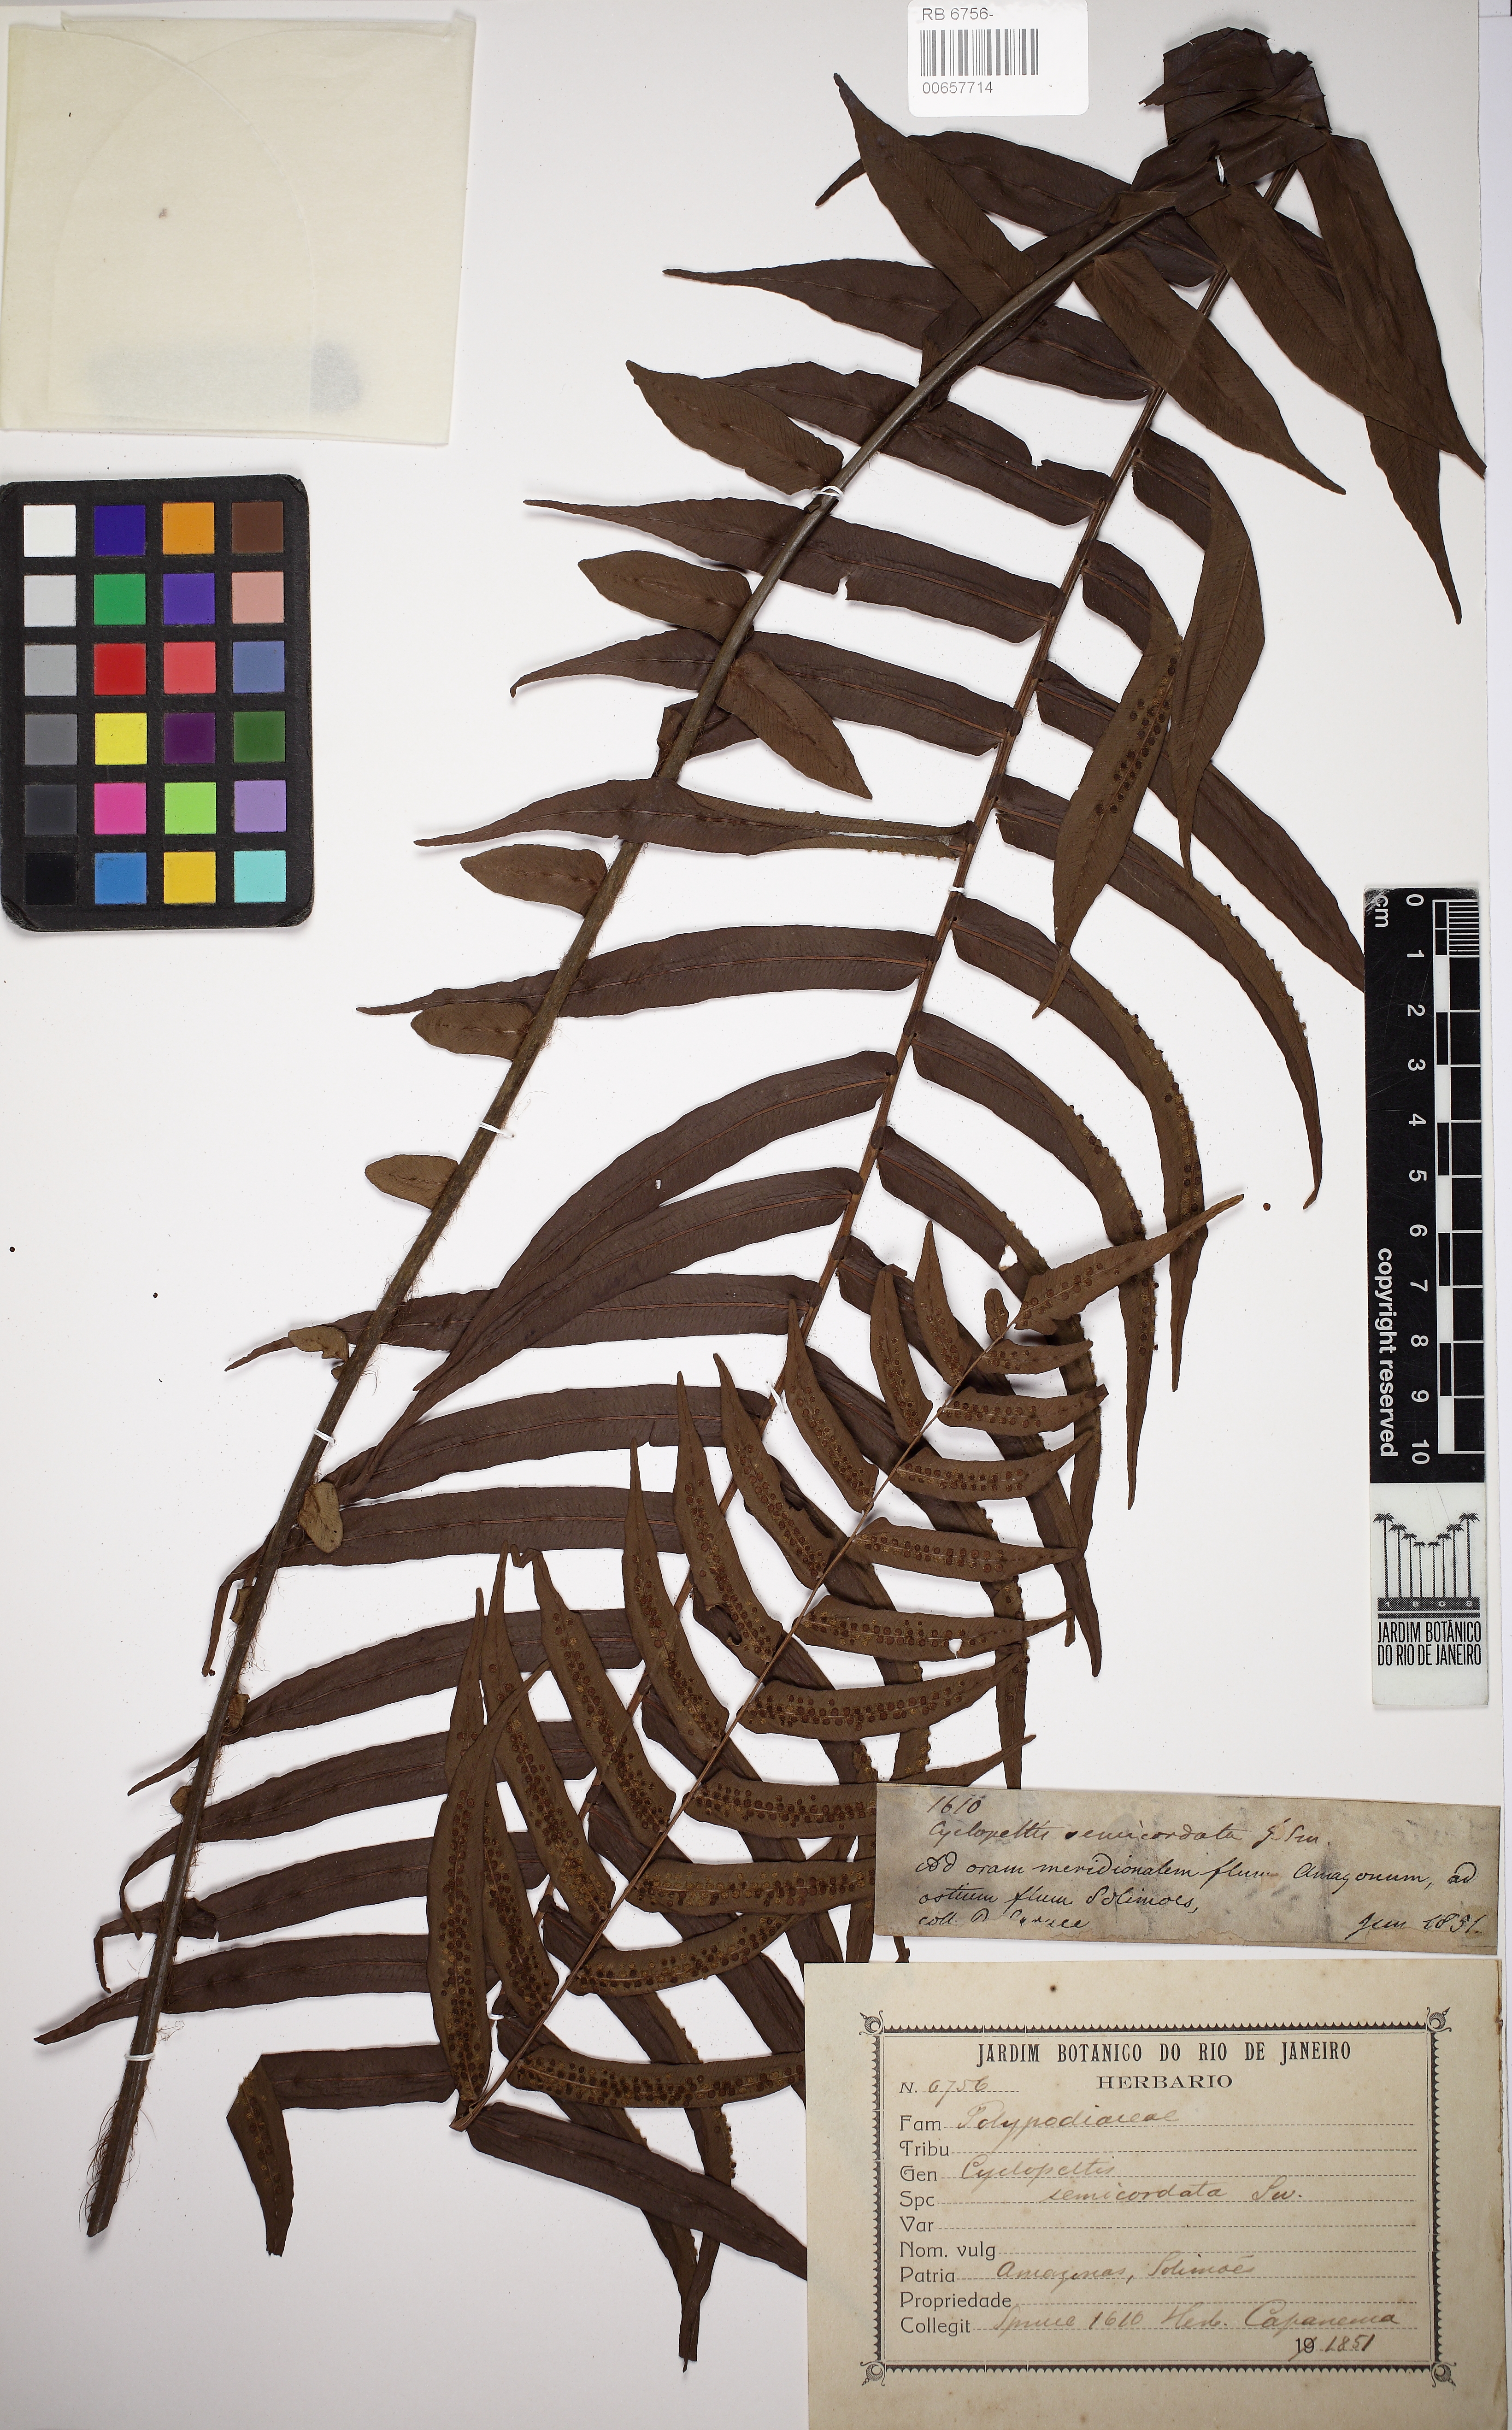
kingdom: Plantae
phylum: Tracheophyta
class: Polypodiopsida
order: Polypodiales
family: Lomariopsidaceae
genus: Cyclopeltis
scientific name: Cyclopeltis semicordata
